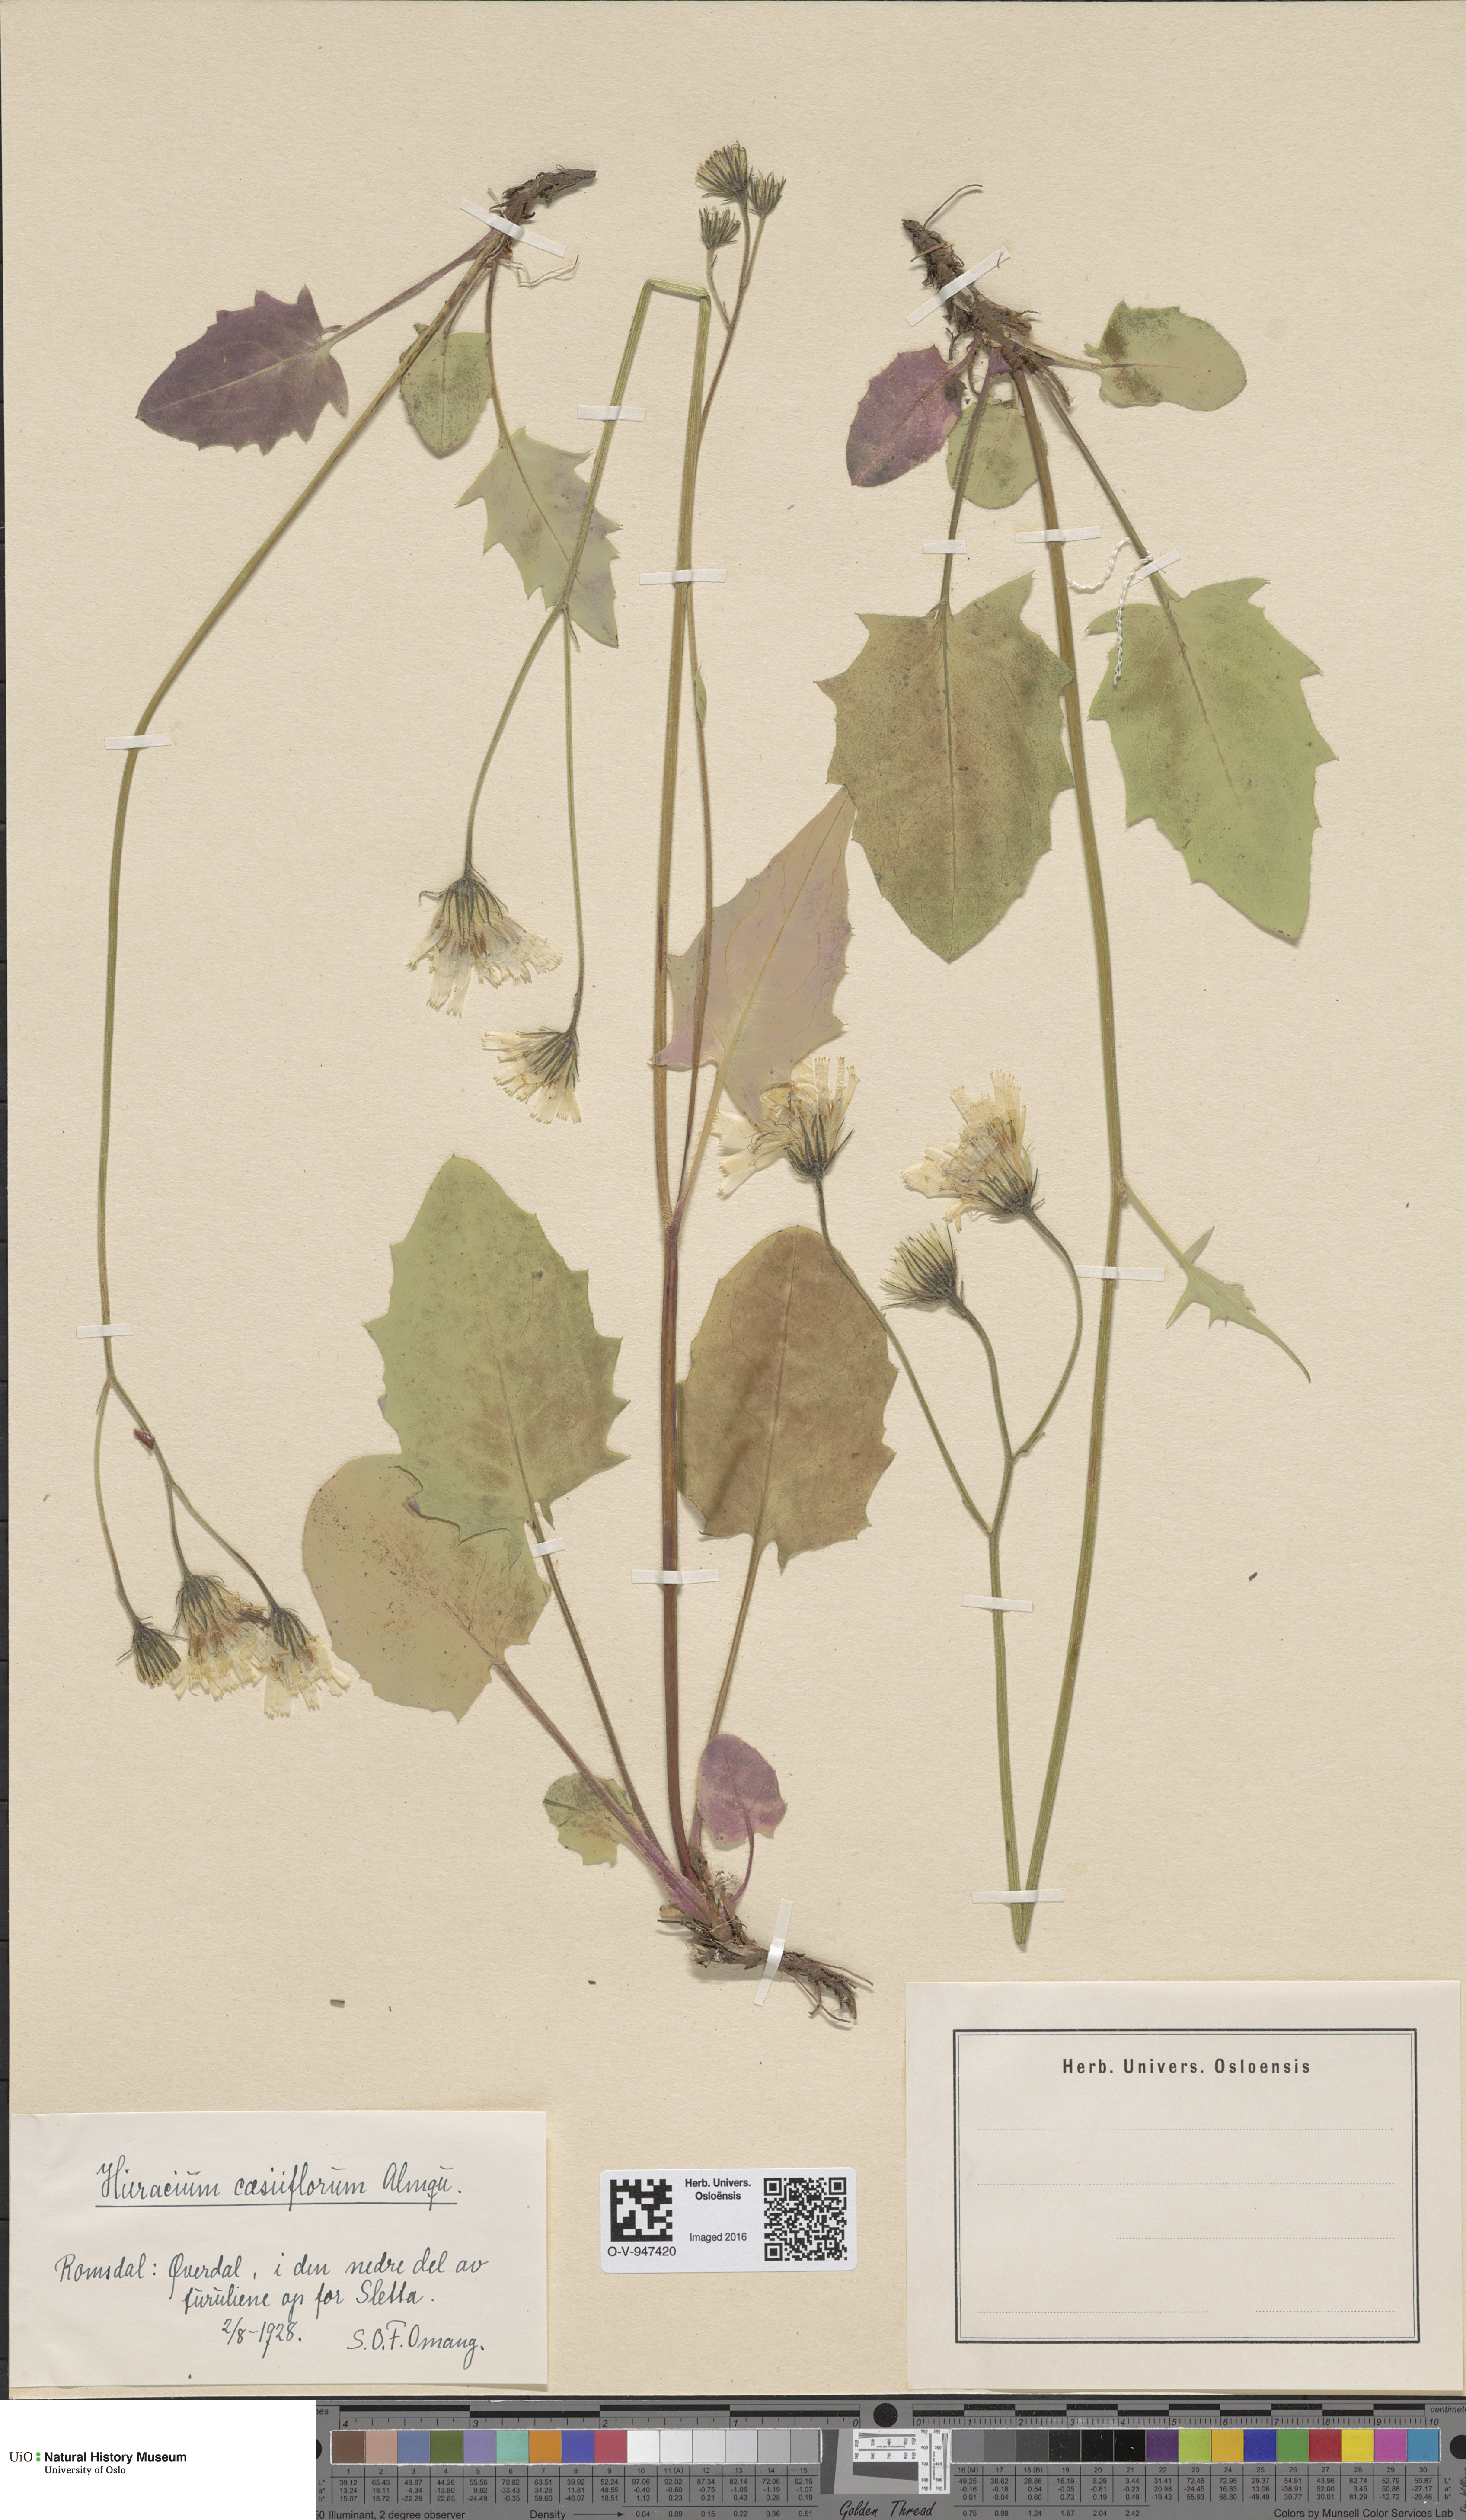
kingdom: Plantae
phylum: Tracheophyta
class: Magnoliopsida
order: Asterales
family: Asteraceae
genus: Hieracium
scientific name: Hieracium bifidum
